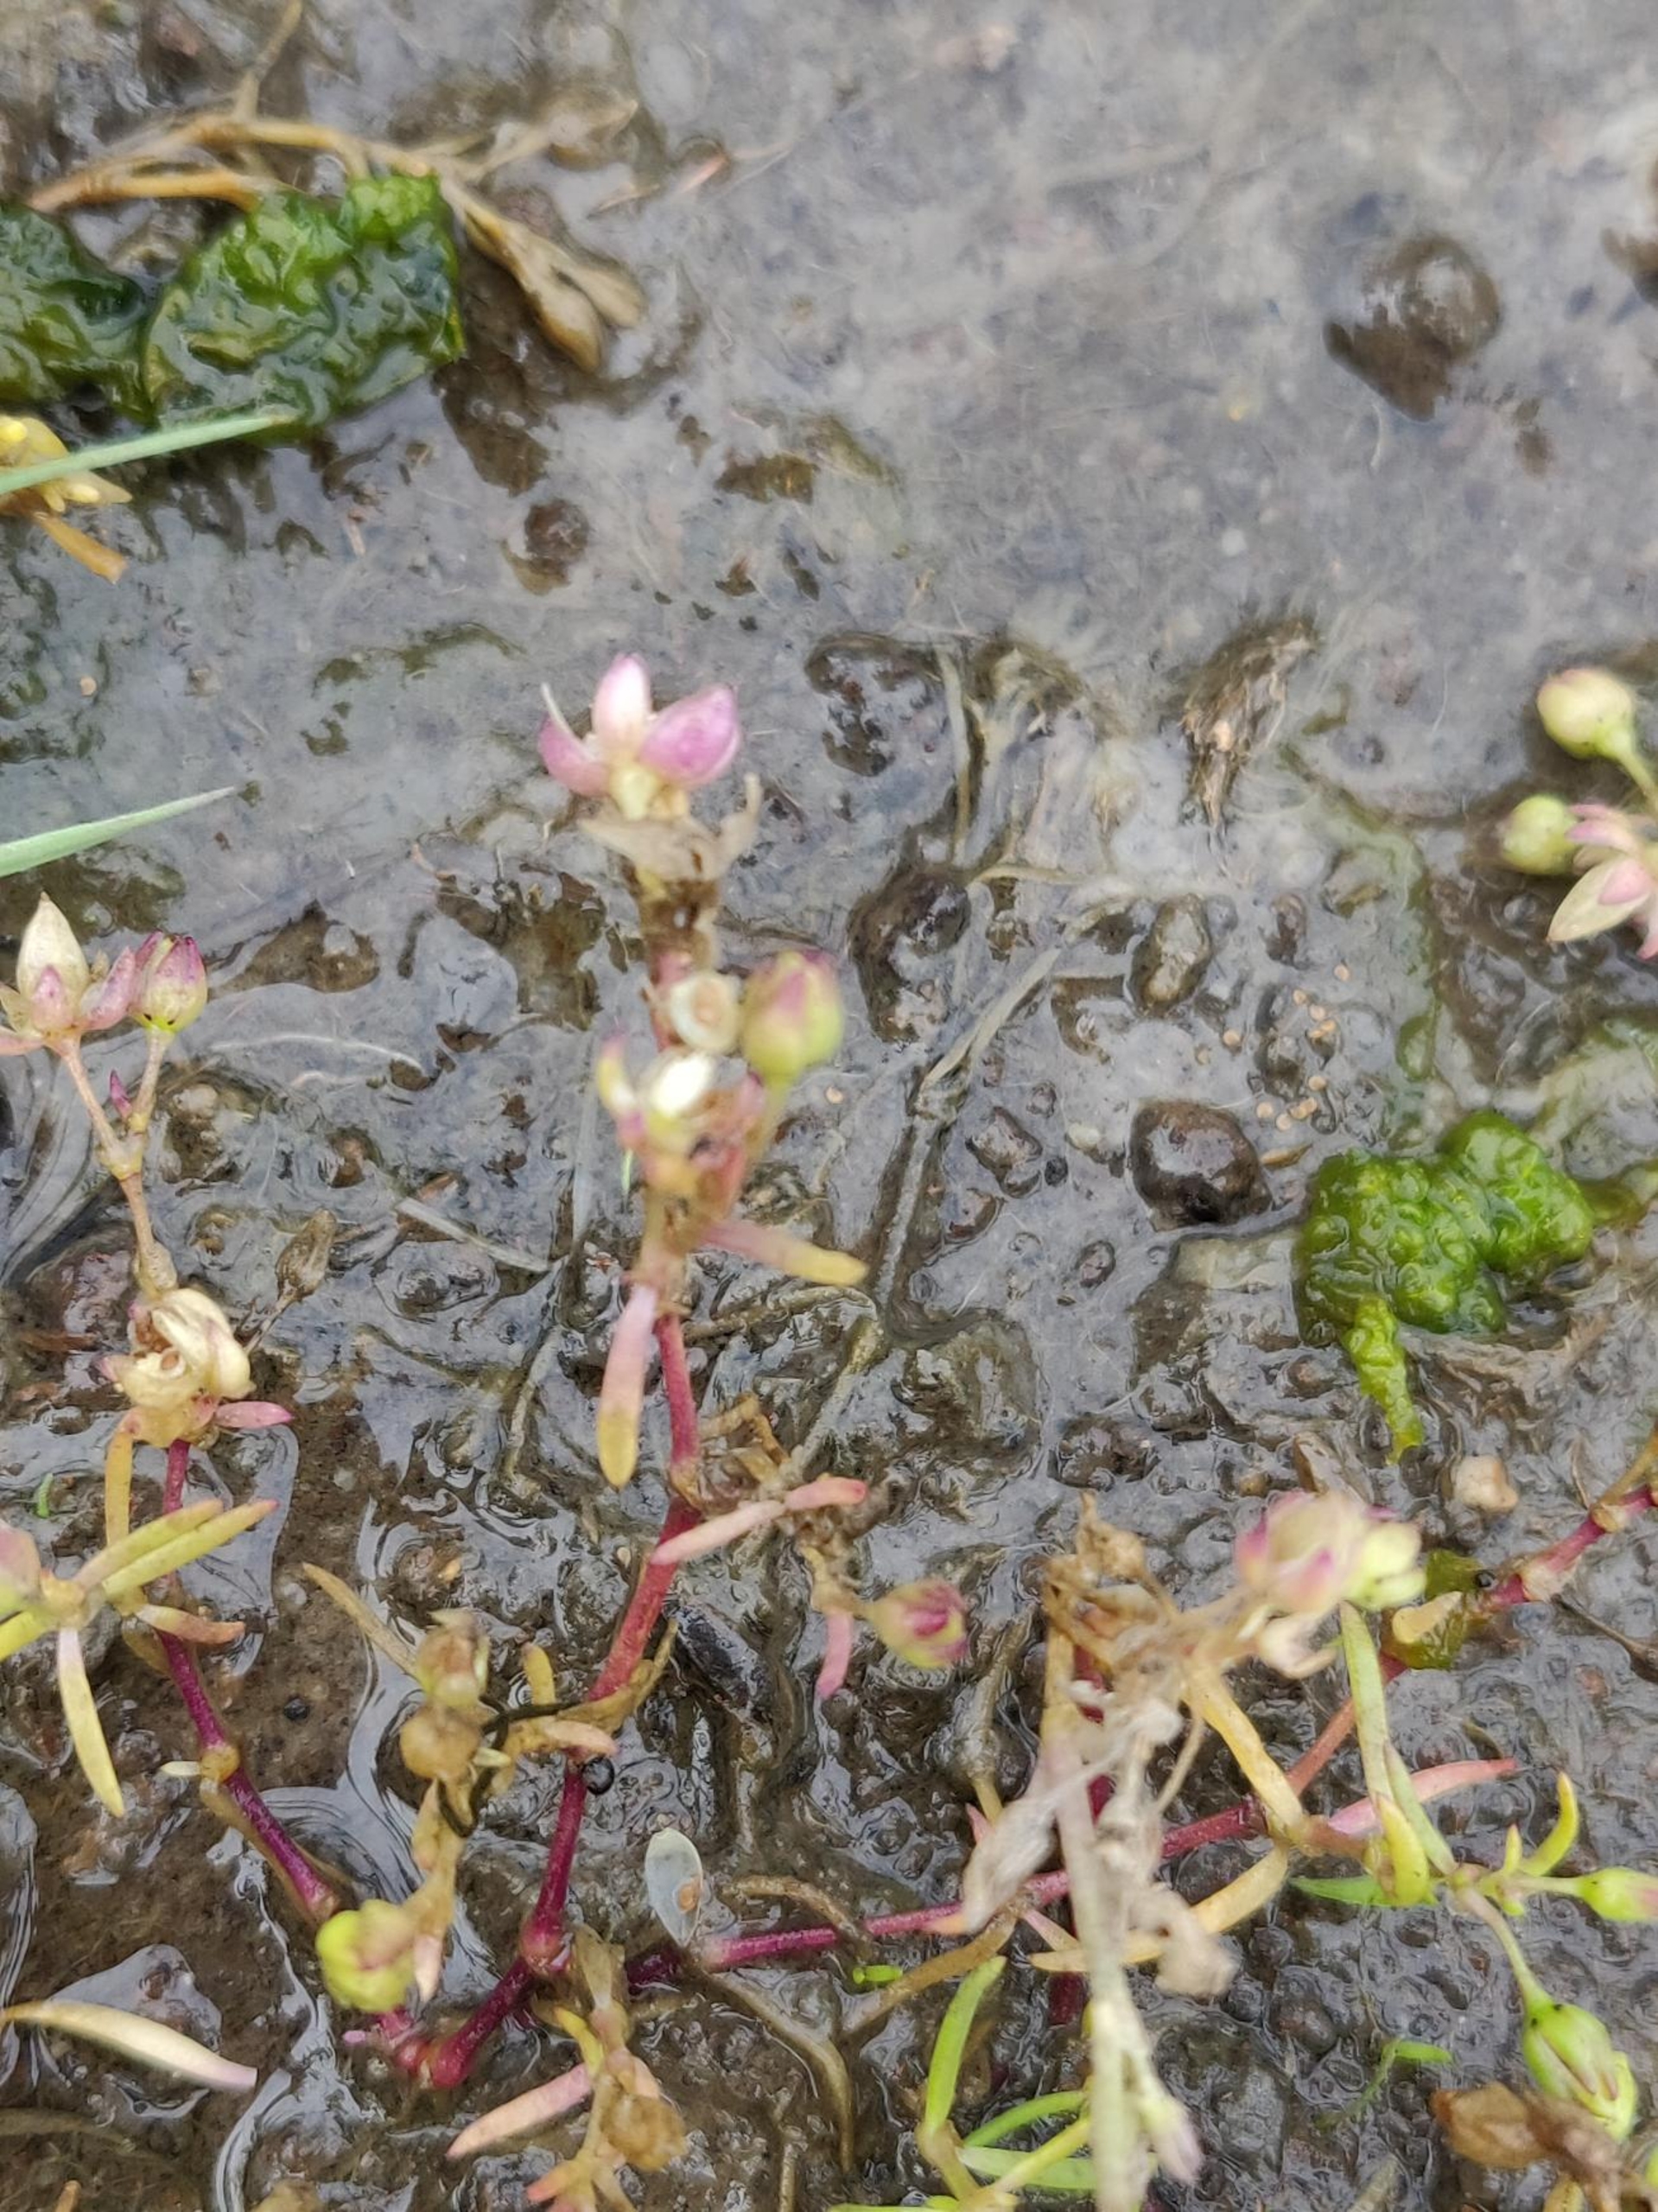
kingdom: Plantae
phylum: Tracheophyta
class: Magnoliopsida
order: Caryophyllales
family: Caryophyllaceae
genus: Spergularia
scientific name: Spergularia media
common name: Vingefrøet hindeknæ
